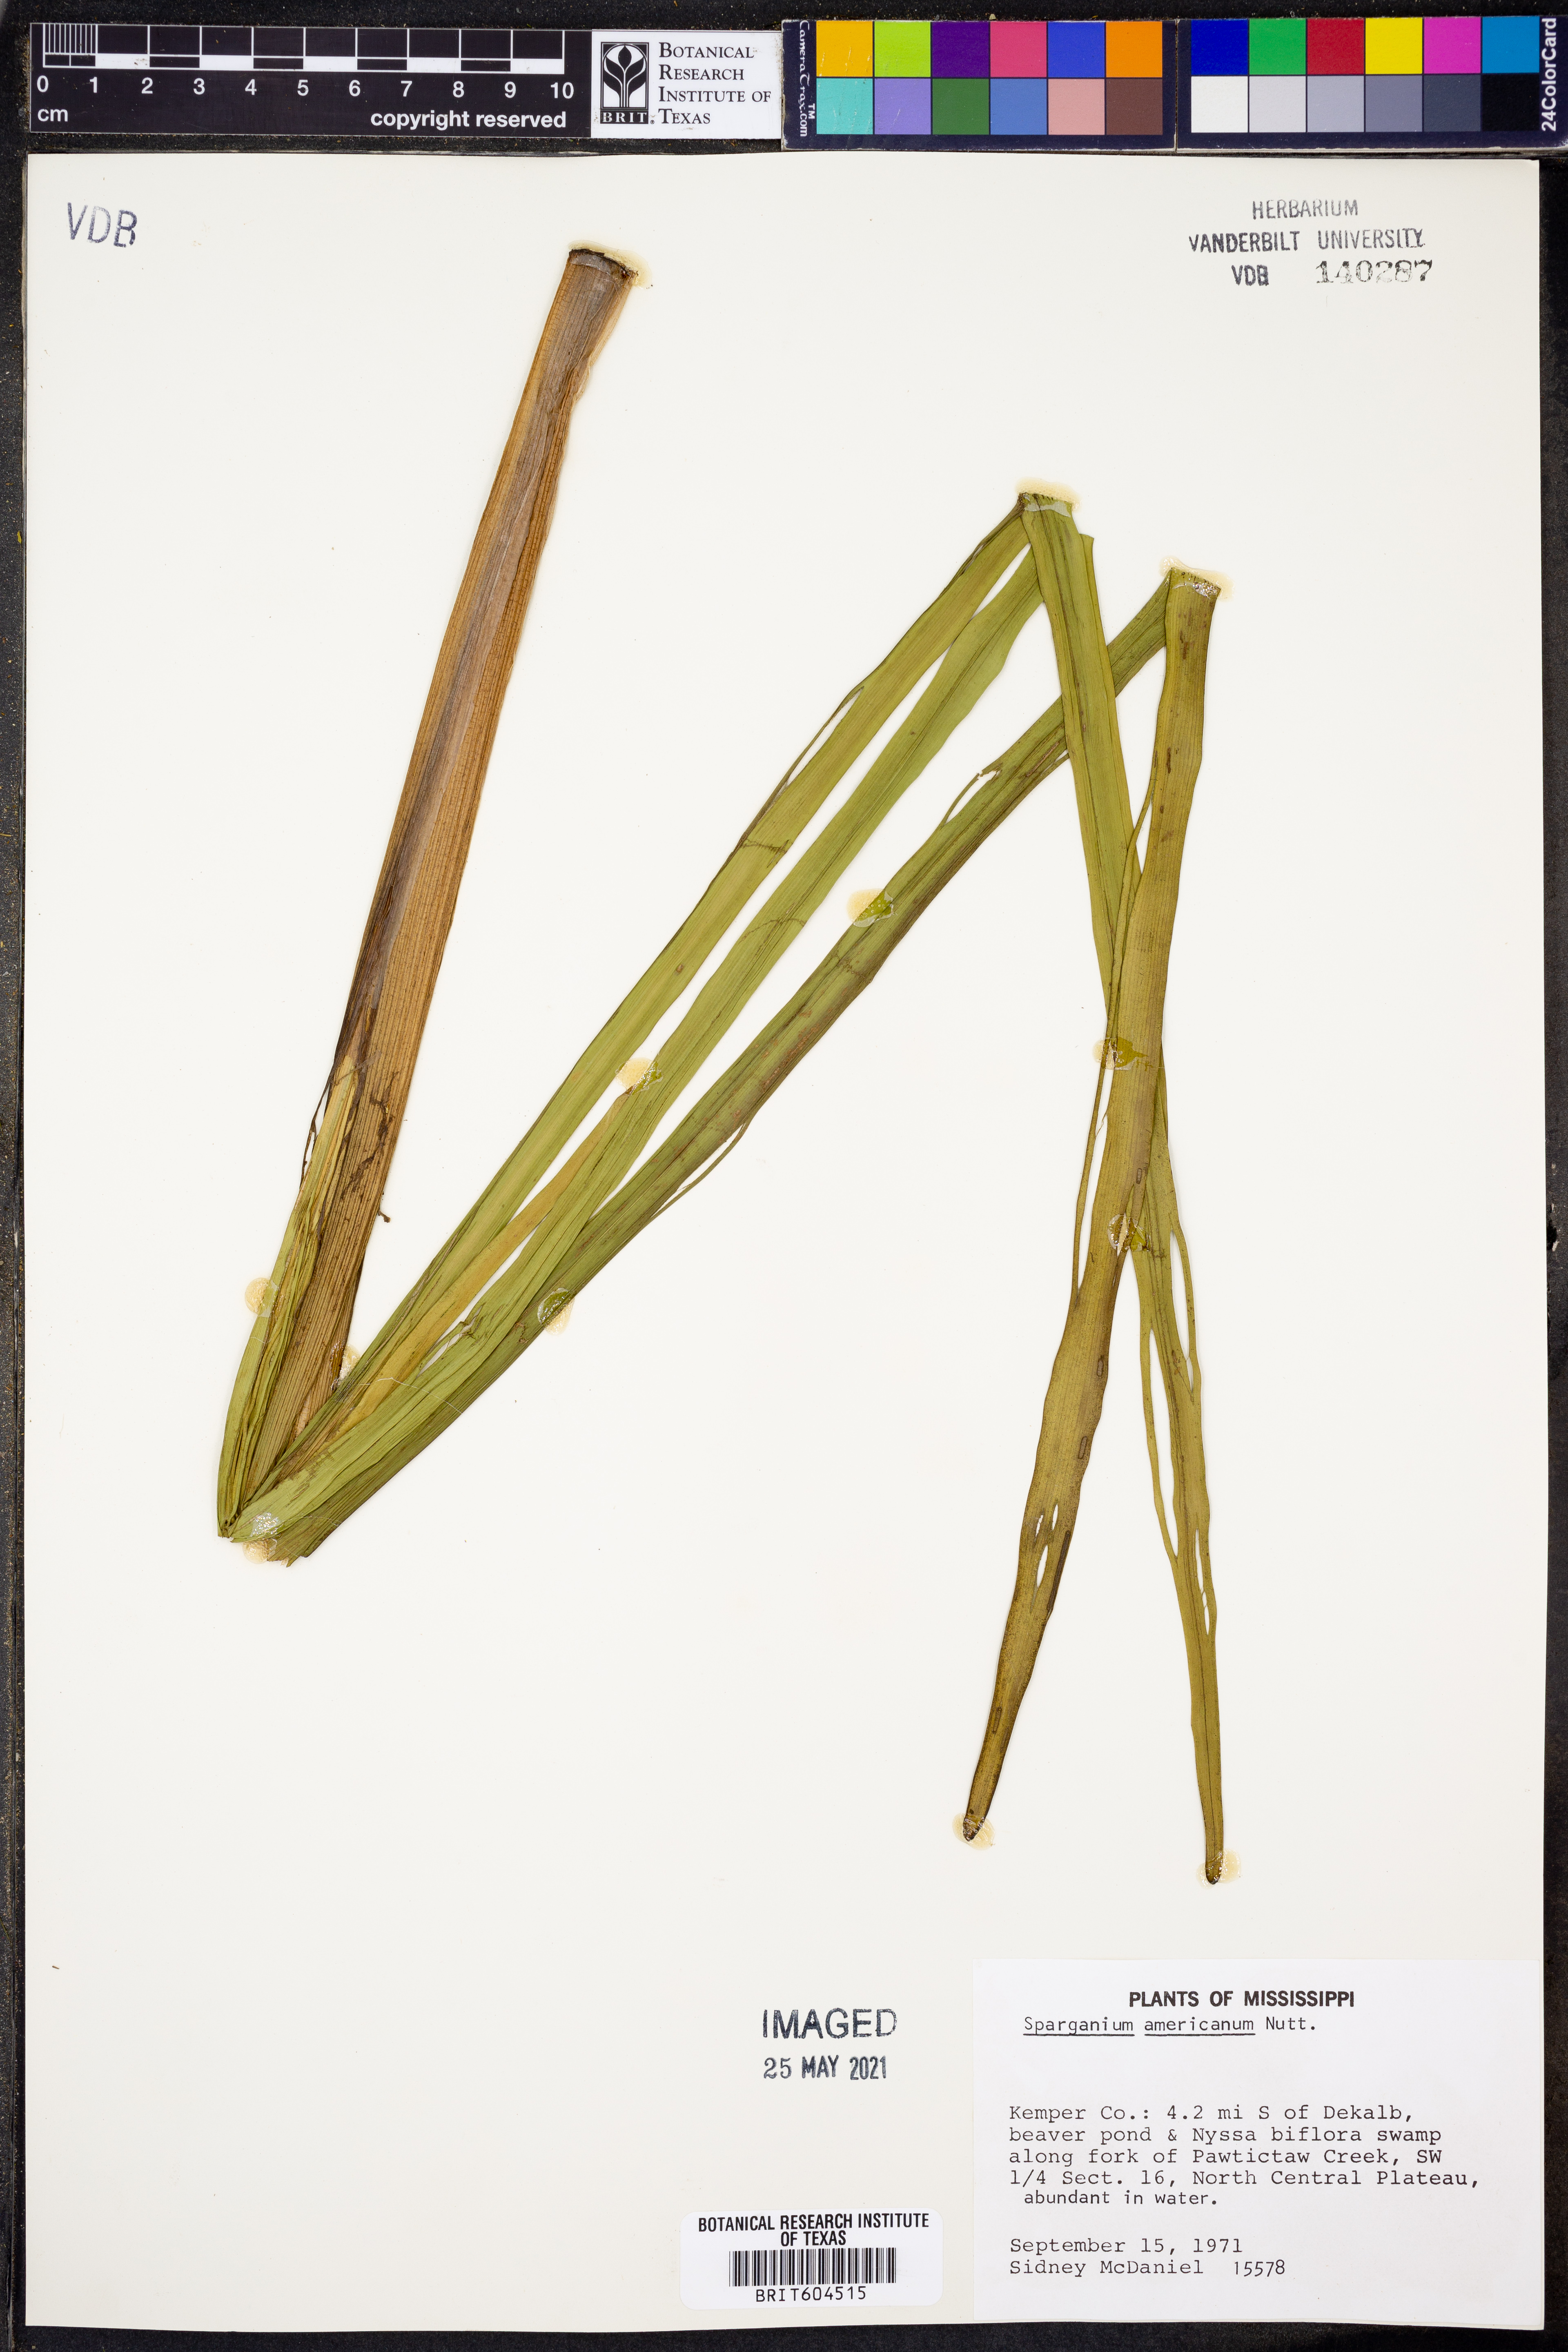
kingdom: Plantae
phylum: Tracheophyta
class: Liliopsida
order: Poales
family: Typhaceae
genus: Sparganium
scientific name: Sparganium americanum
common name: American burreed
